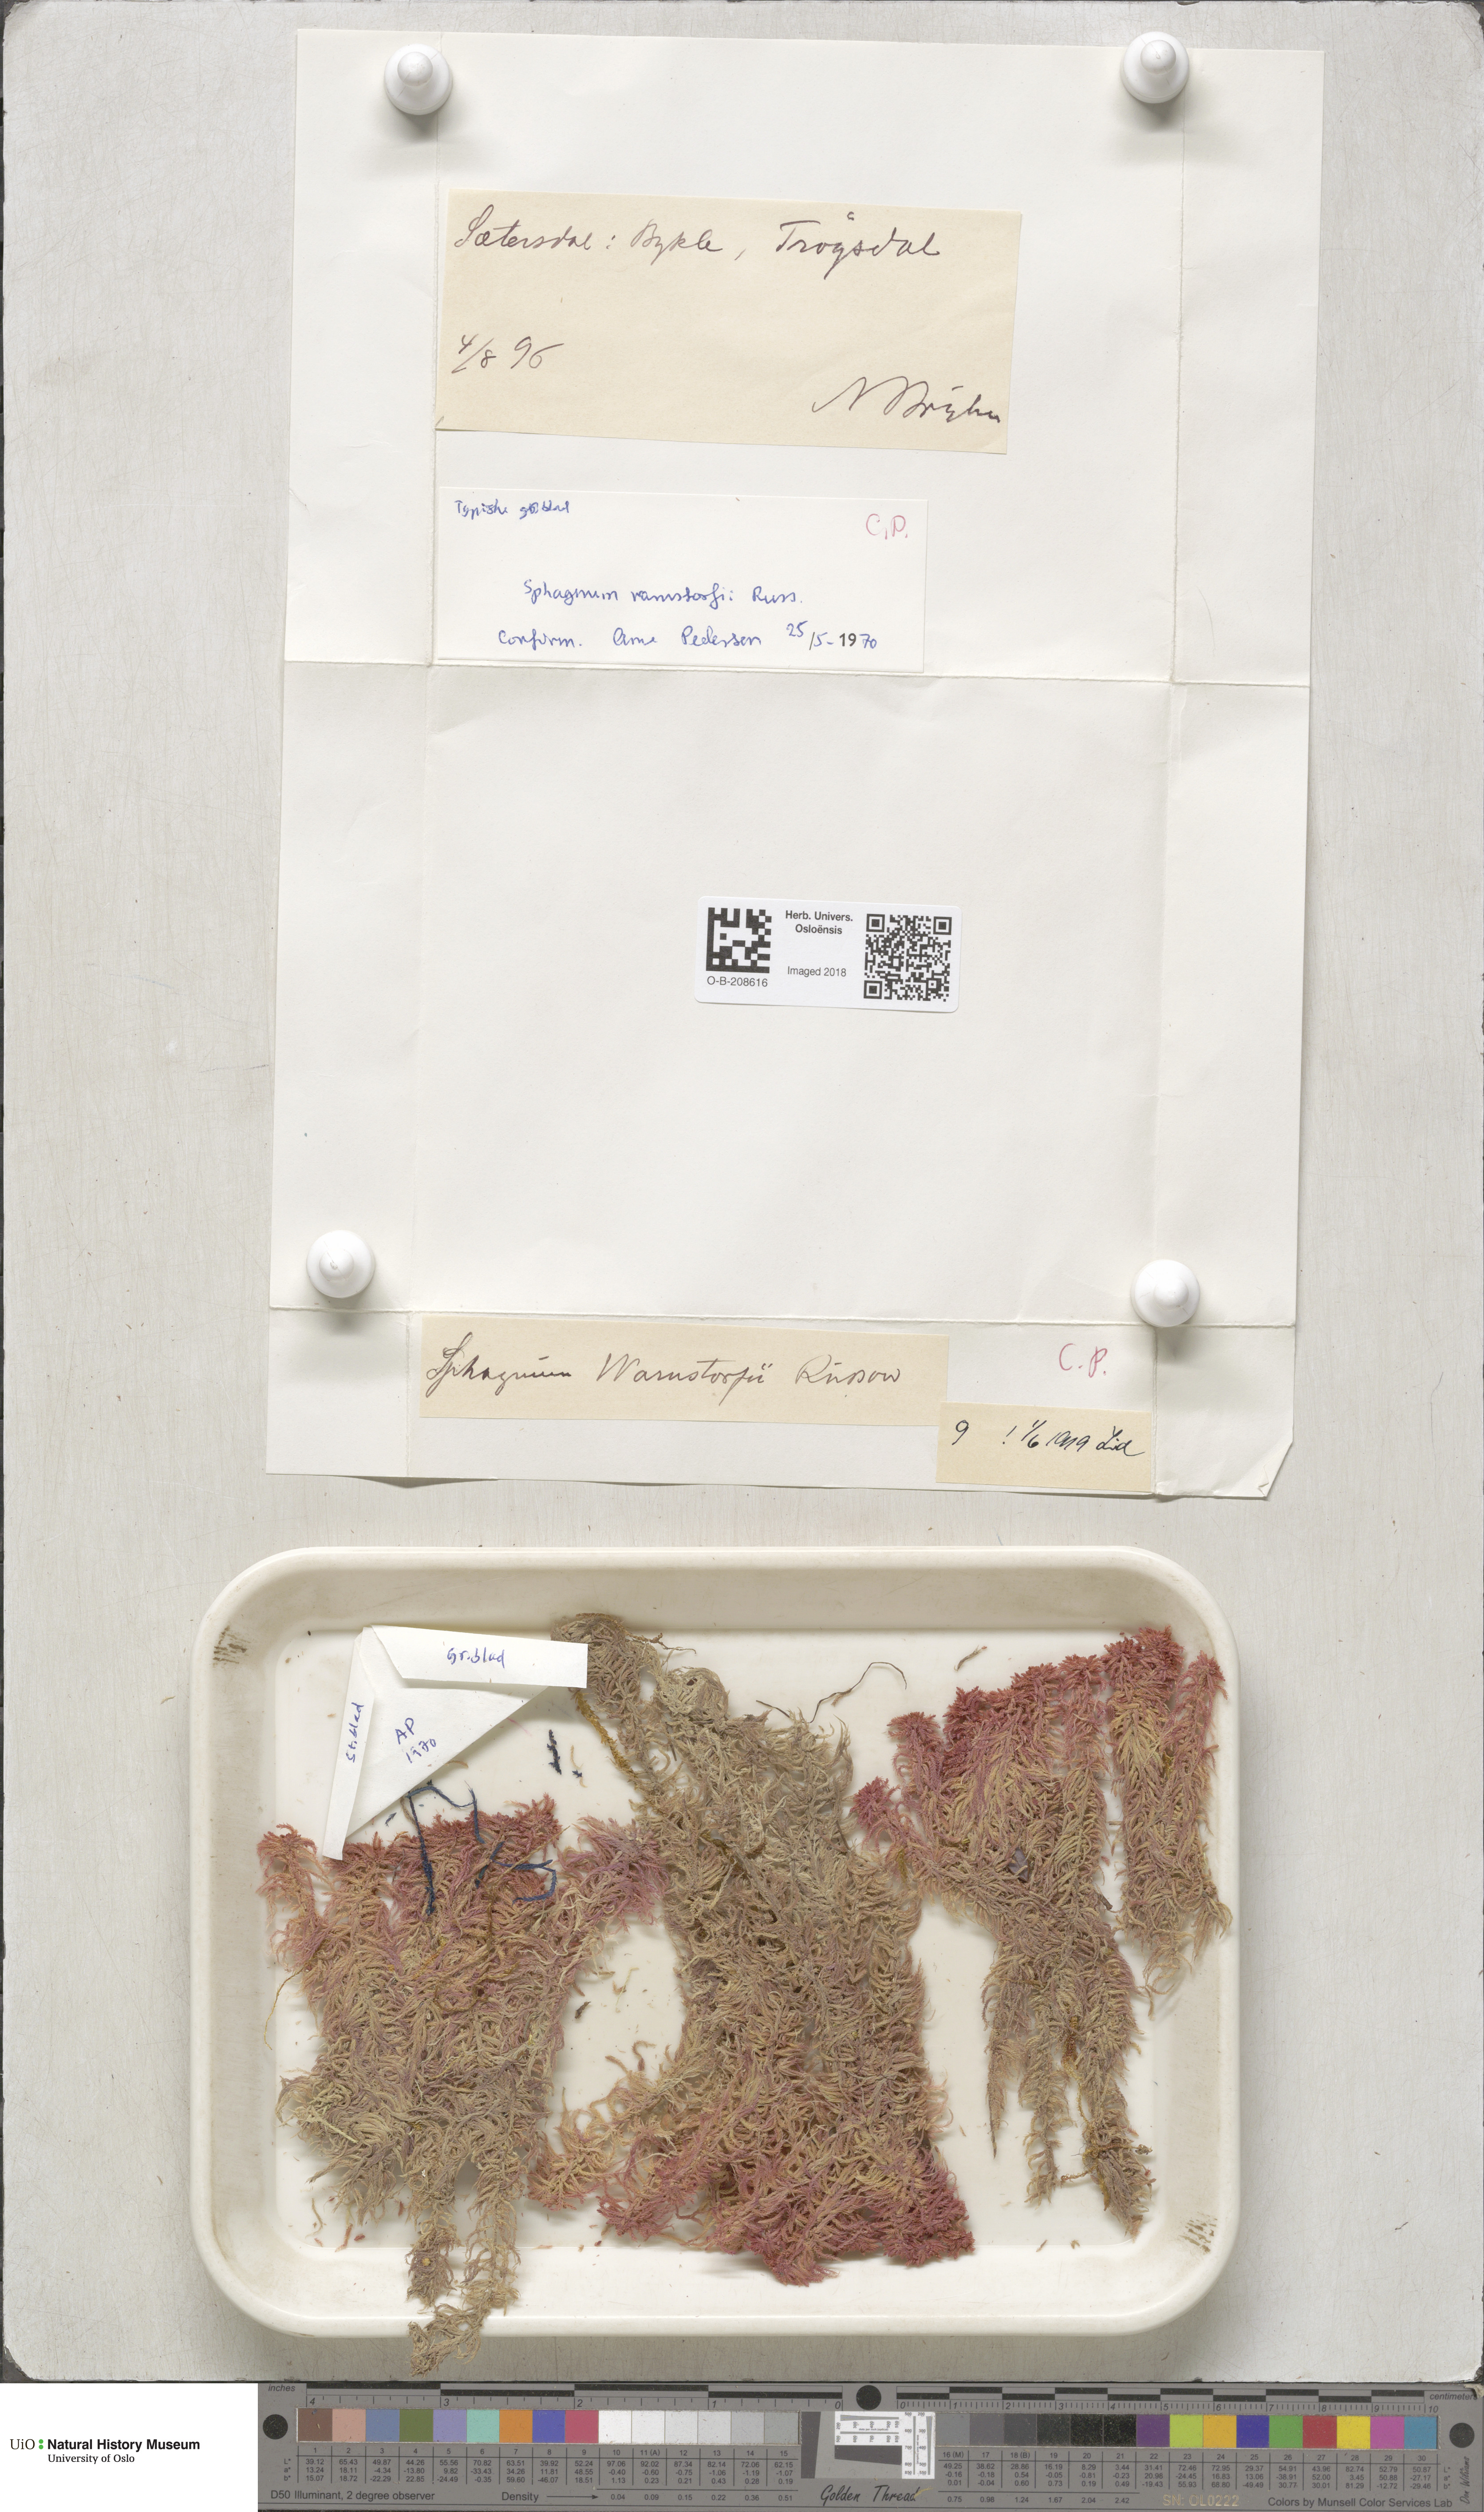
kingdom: Plantae
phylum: Bryophyta
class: Sphagnopsida
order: Sphagnales
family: Sphagnaceae
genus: Sphagnum
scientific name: Sphagnum warnstorfii
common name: Warnstorf's peat moss
